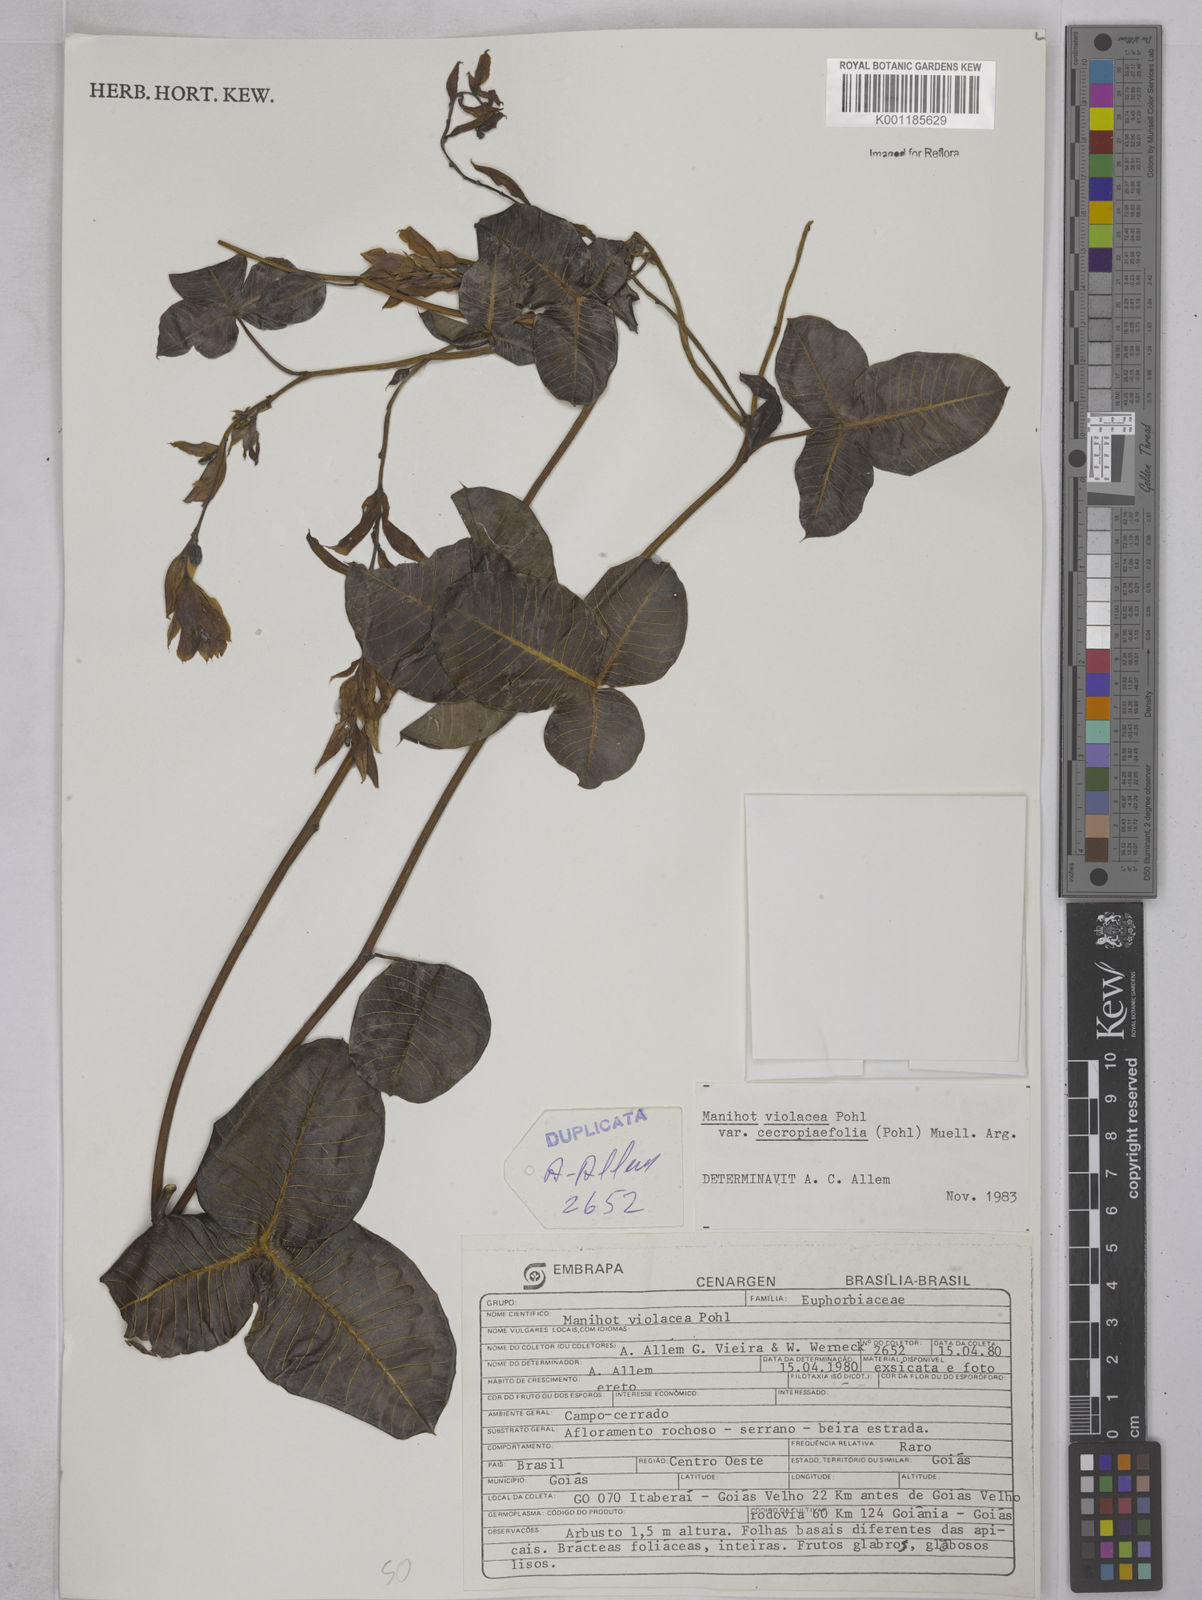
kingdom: Plantae
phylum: Tracheophyta
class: Magnoliopsida
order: Malpighiales
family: Euphorbiaceae
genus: Manihot
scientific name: Manihot cecropiifolia
